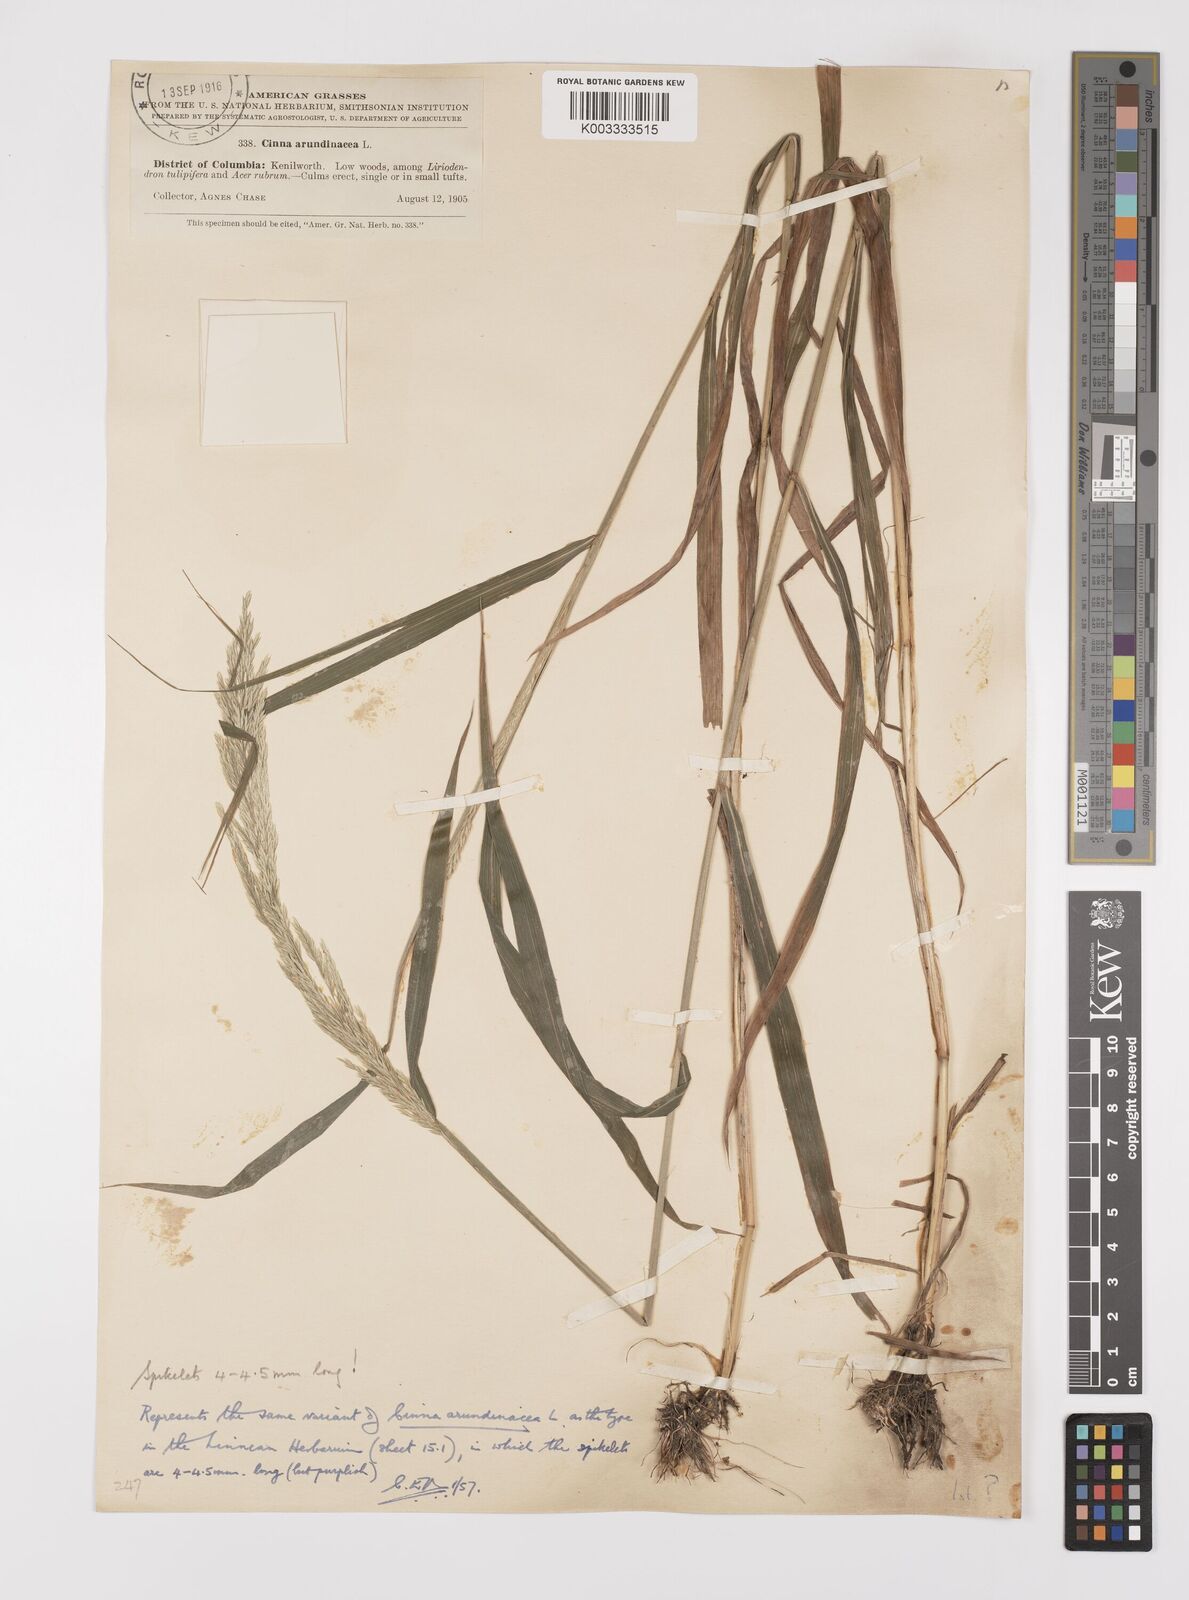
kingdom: Plantae
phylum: Tracheophyta
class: Liliopsida
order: Poales
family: Poaceae
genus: Cinna
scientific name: Cinna
